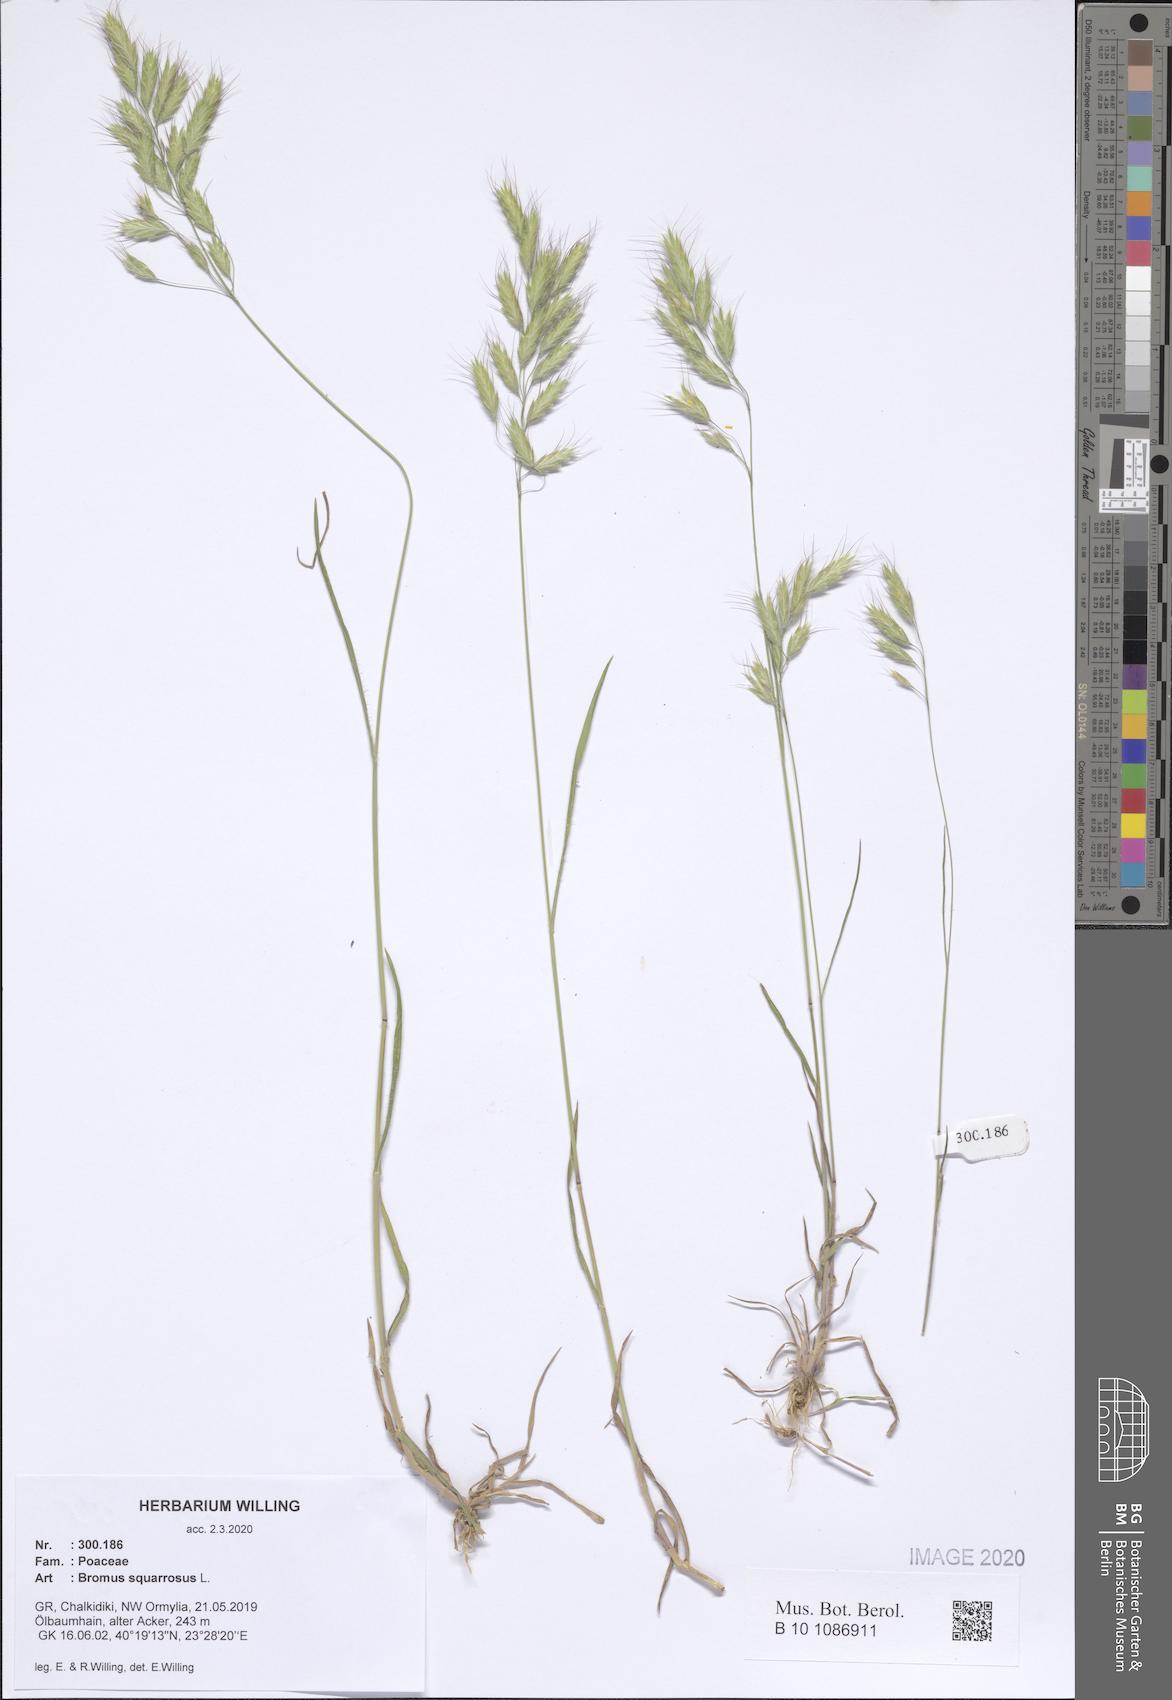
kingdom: Plantae
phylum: Tracheophyta
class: Liliopsida
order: Poales
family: Poaceae
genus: Bromus
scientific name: Bromus squarrosus
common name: Corn brome
